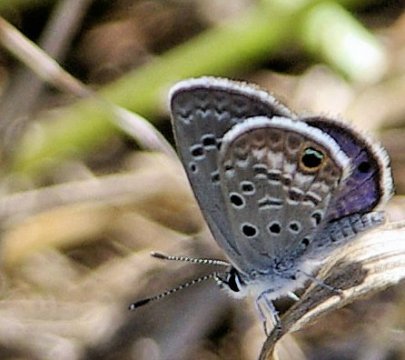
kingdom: Animalia
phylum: Arthropoda
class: Insecta
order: Lepidoptera
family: Lycaenidae
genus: Hemiargus
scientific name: Hemiargus ceraunus
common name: Ceraunus Blue
